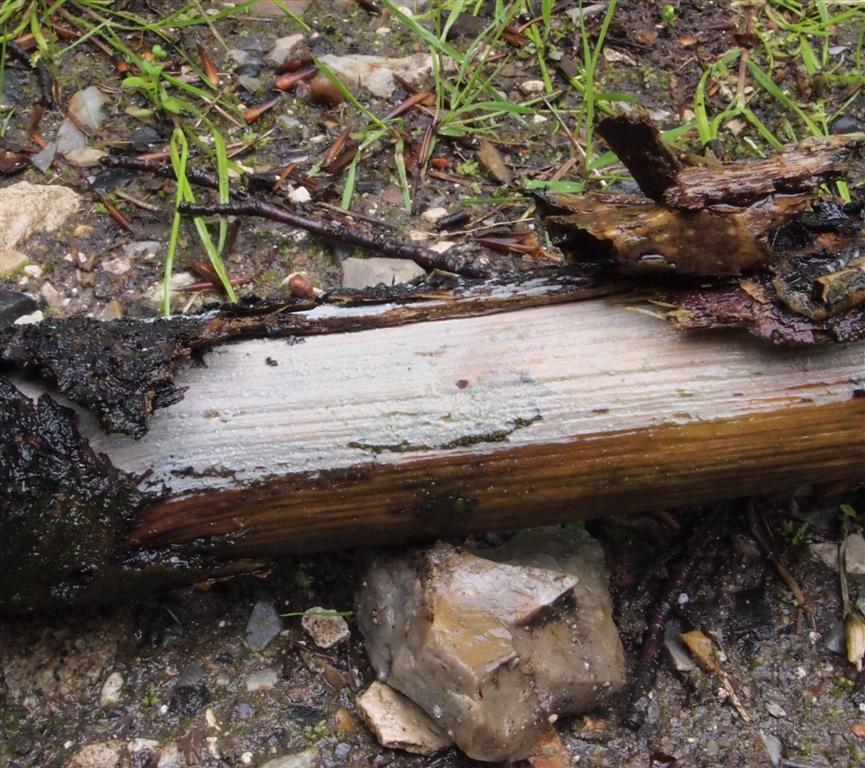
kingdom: Fungi
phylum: Basidiomycota
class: Agaricomycetes
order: Polyporales
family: Hyphodermataceae
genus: Hyphoderma
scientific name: Hyphoderma medioburiense
